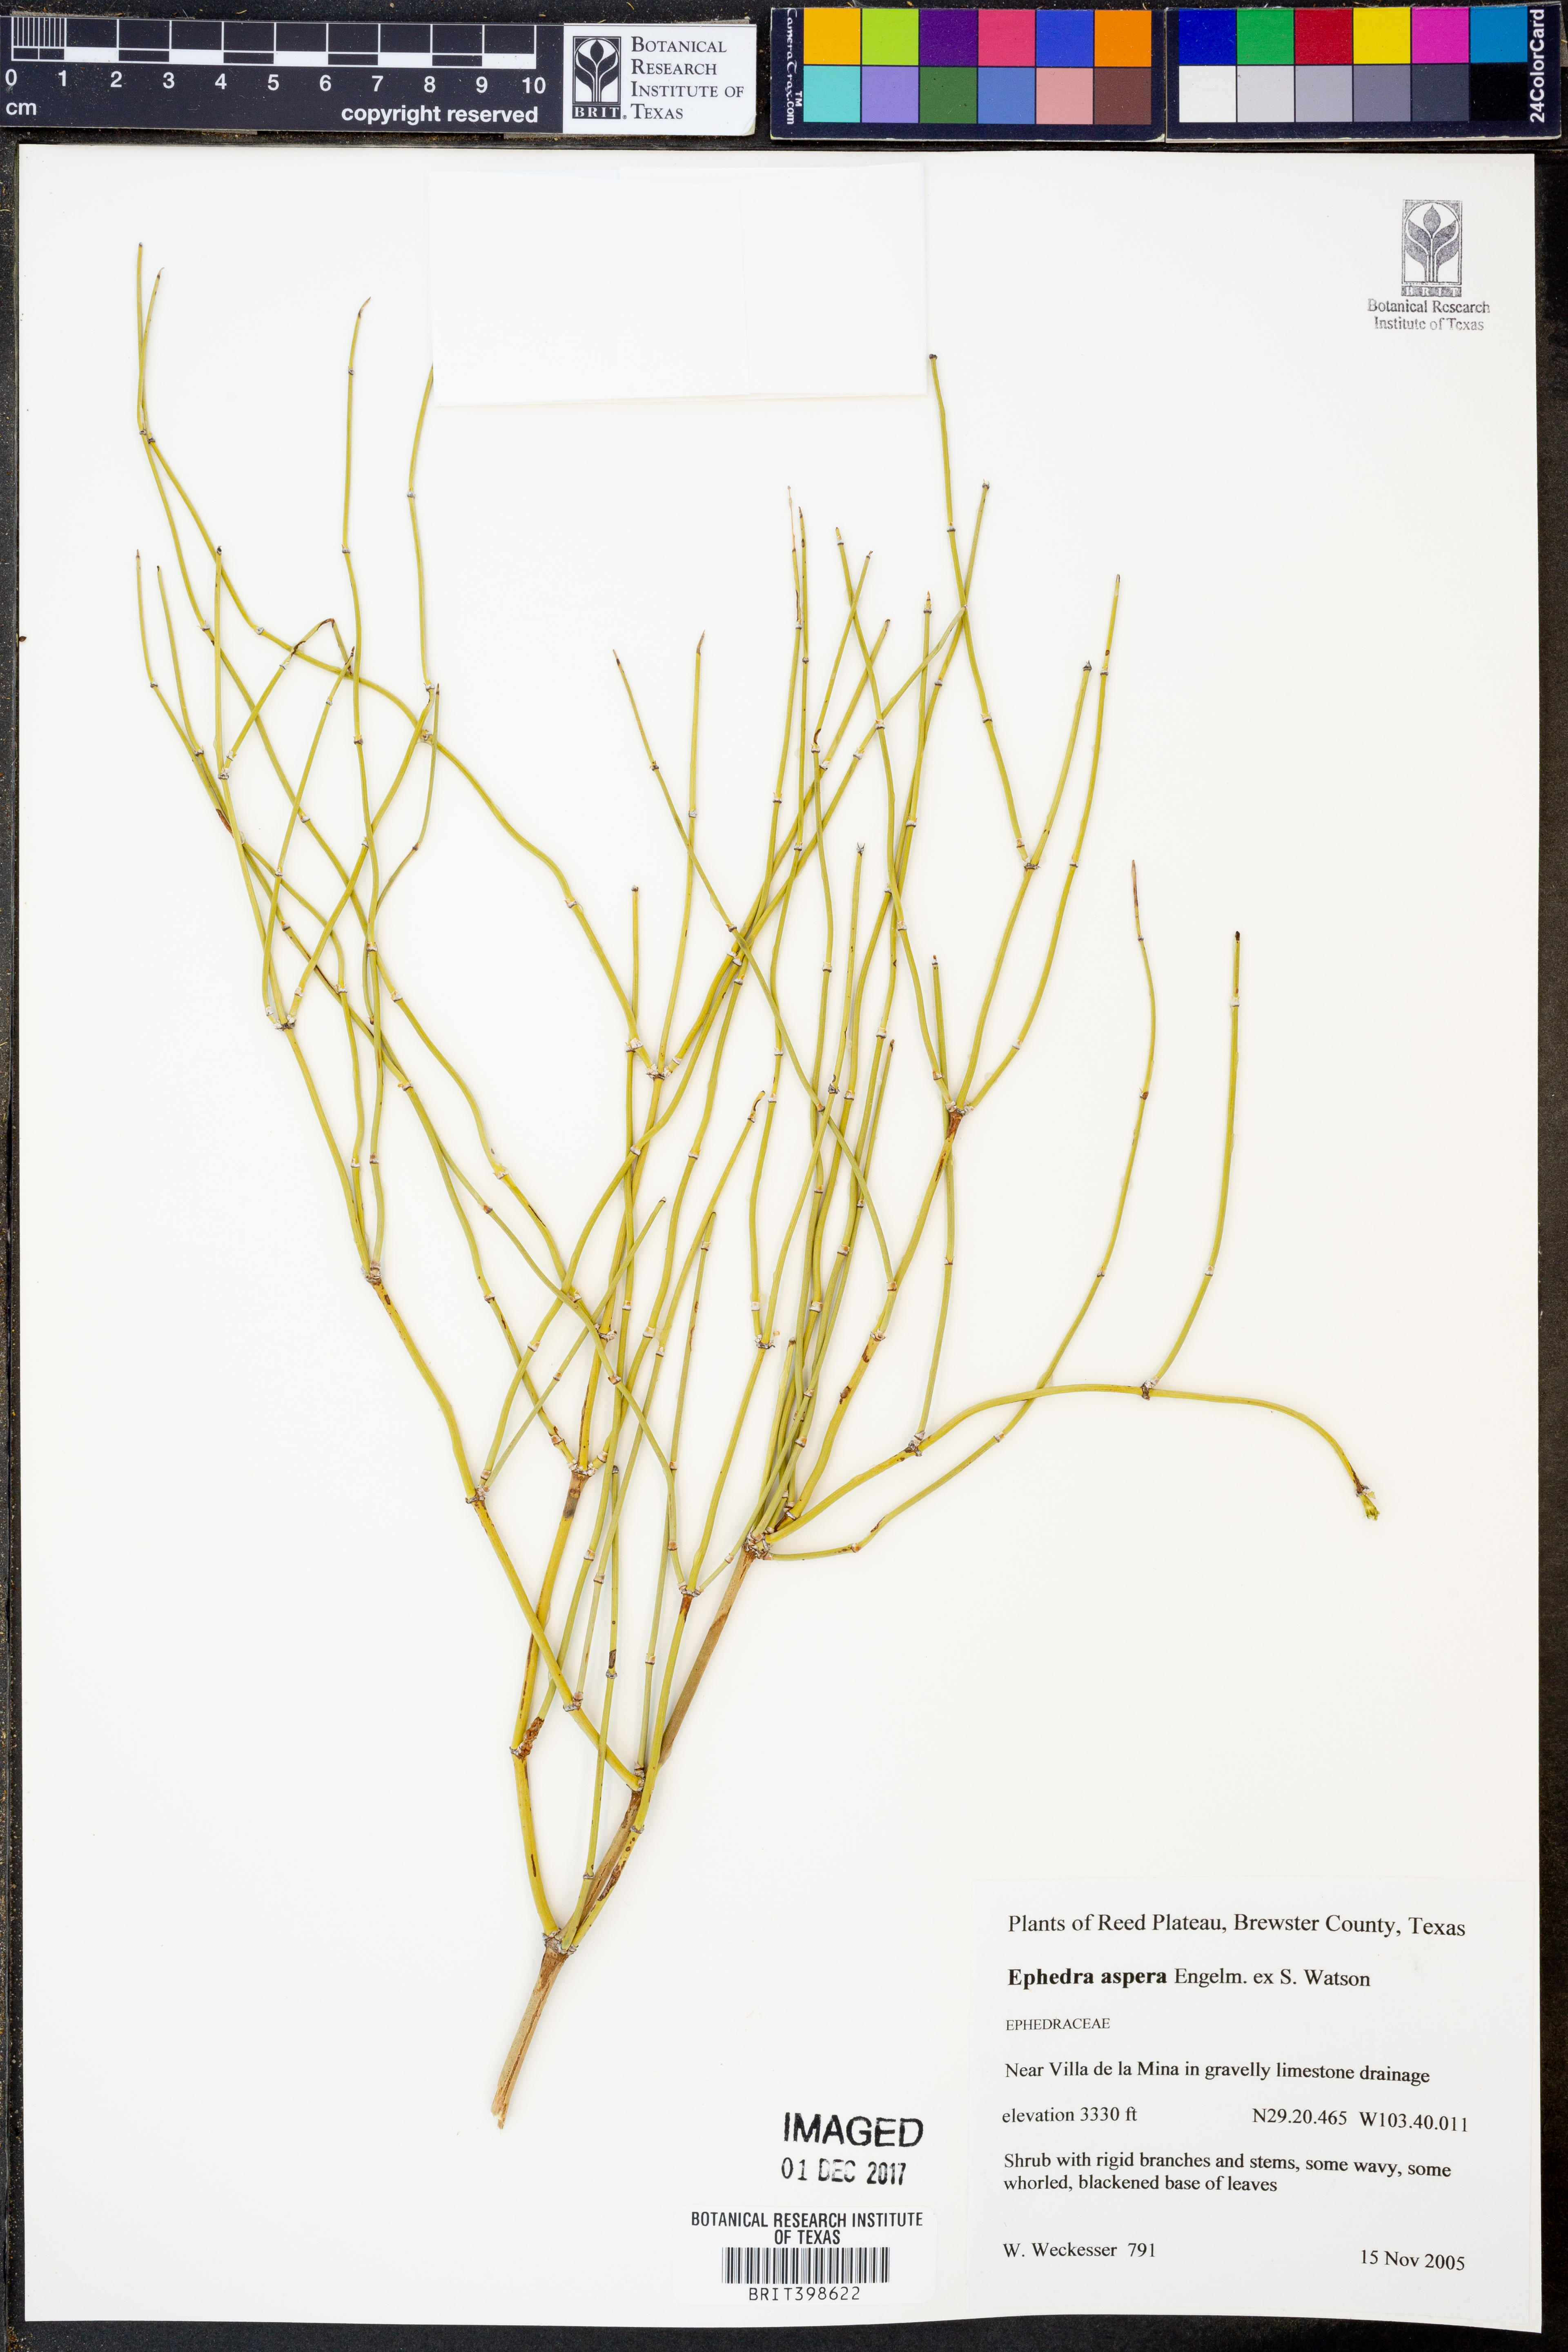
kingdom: Plantae
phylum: Tracheophyta
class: Gnetopsida
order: Ephedrales
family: Ephedraceae
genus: Ephedra
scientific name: Ephedra aspera
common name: Boundary ephedra
